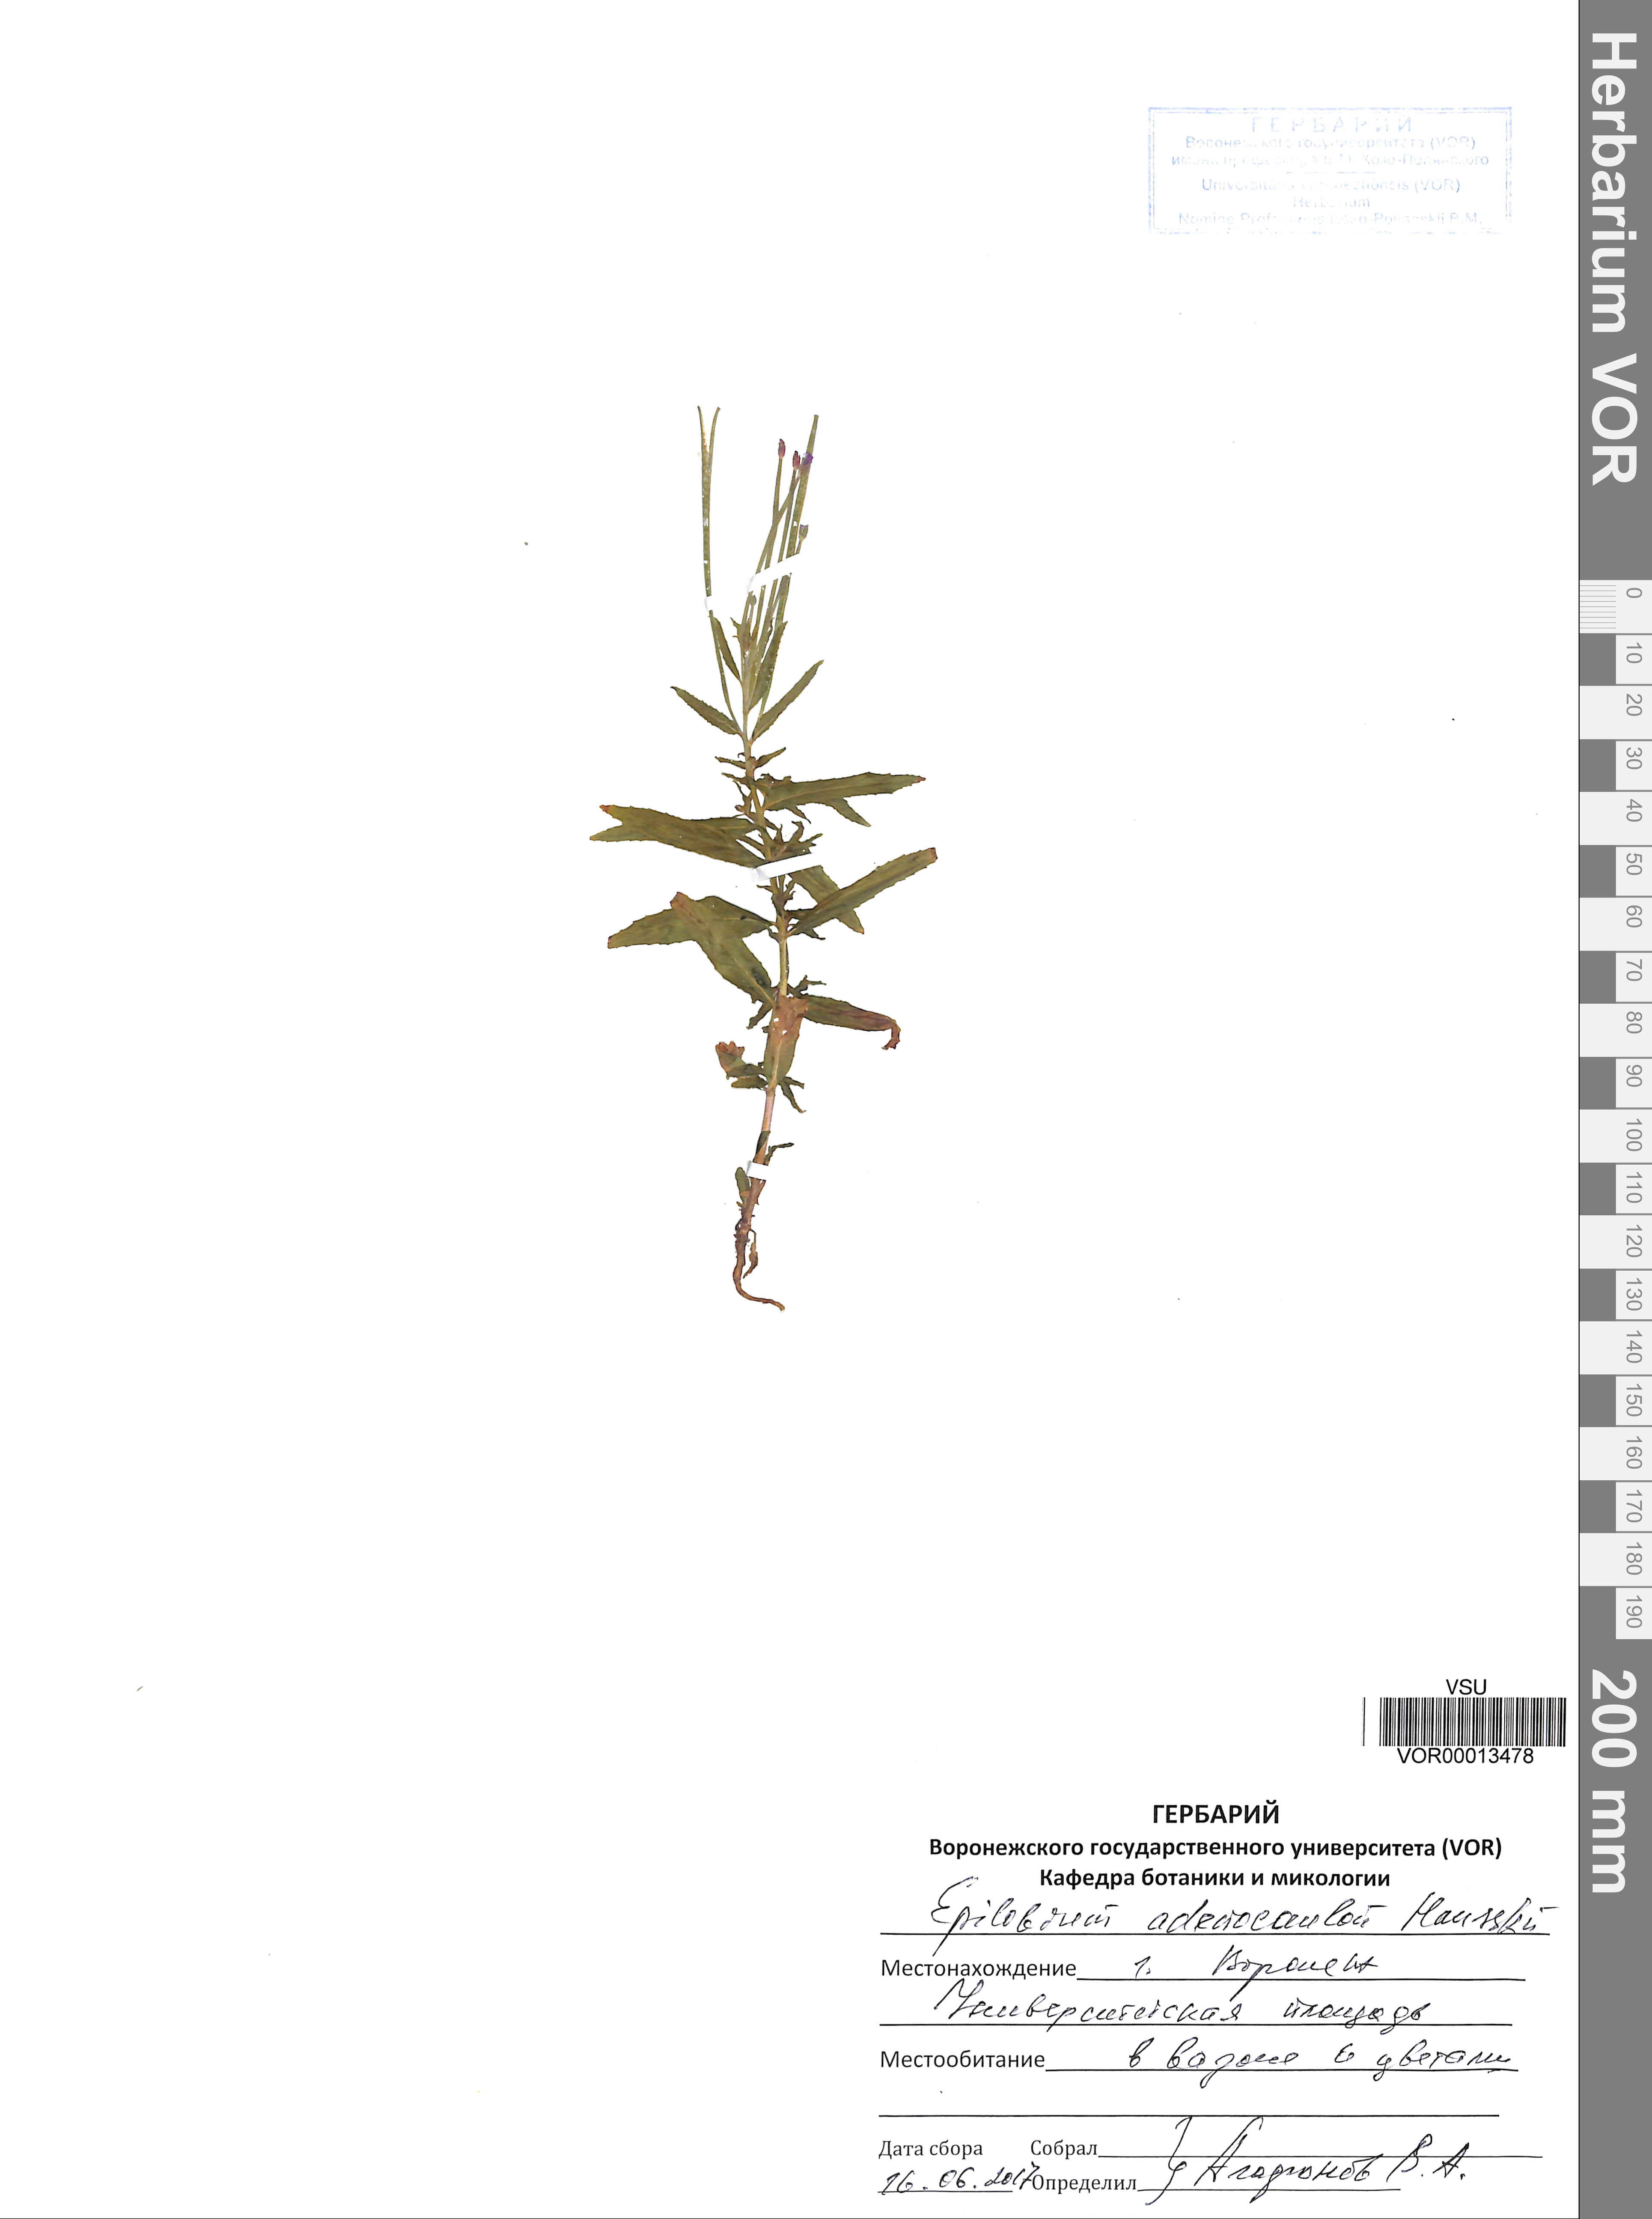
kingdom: Plantae
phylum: Tracheophyta
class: Magnoliopsida
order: Myrtales
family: Onagraceae
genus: Epilobium
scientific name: Epilobium ciliatum
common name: American willowherb
